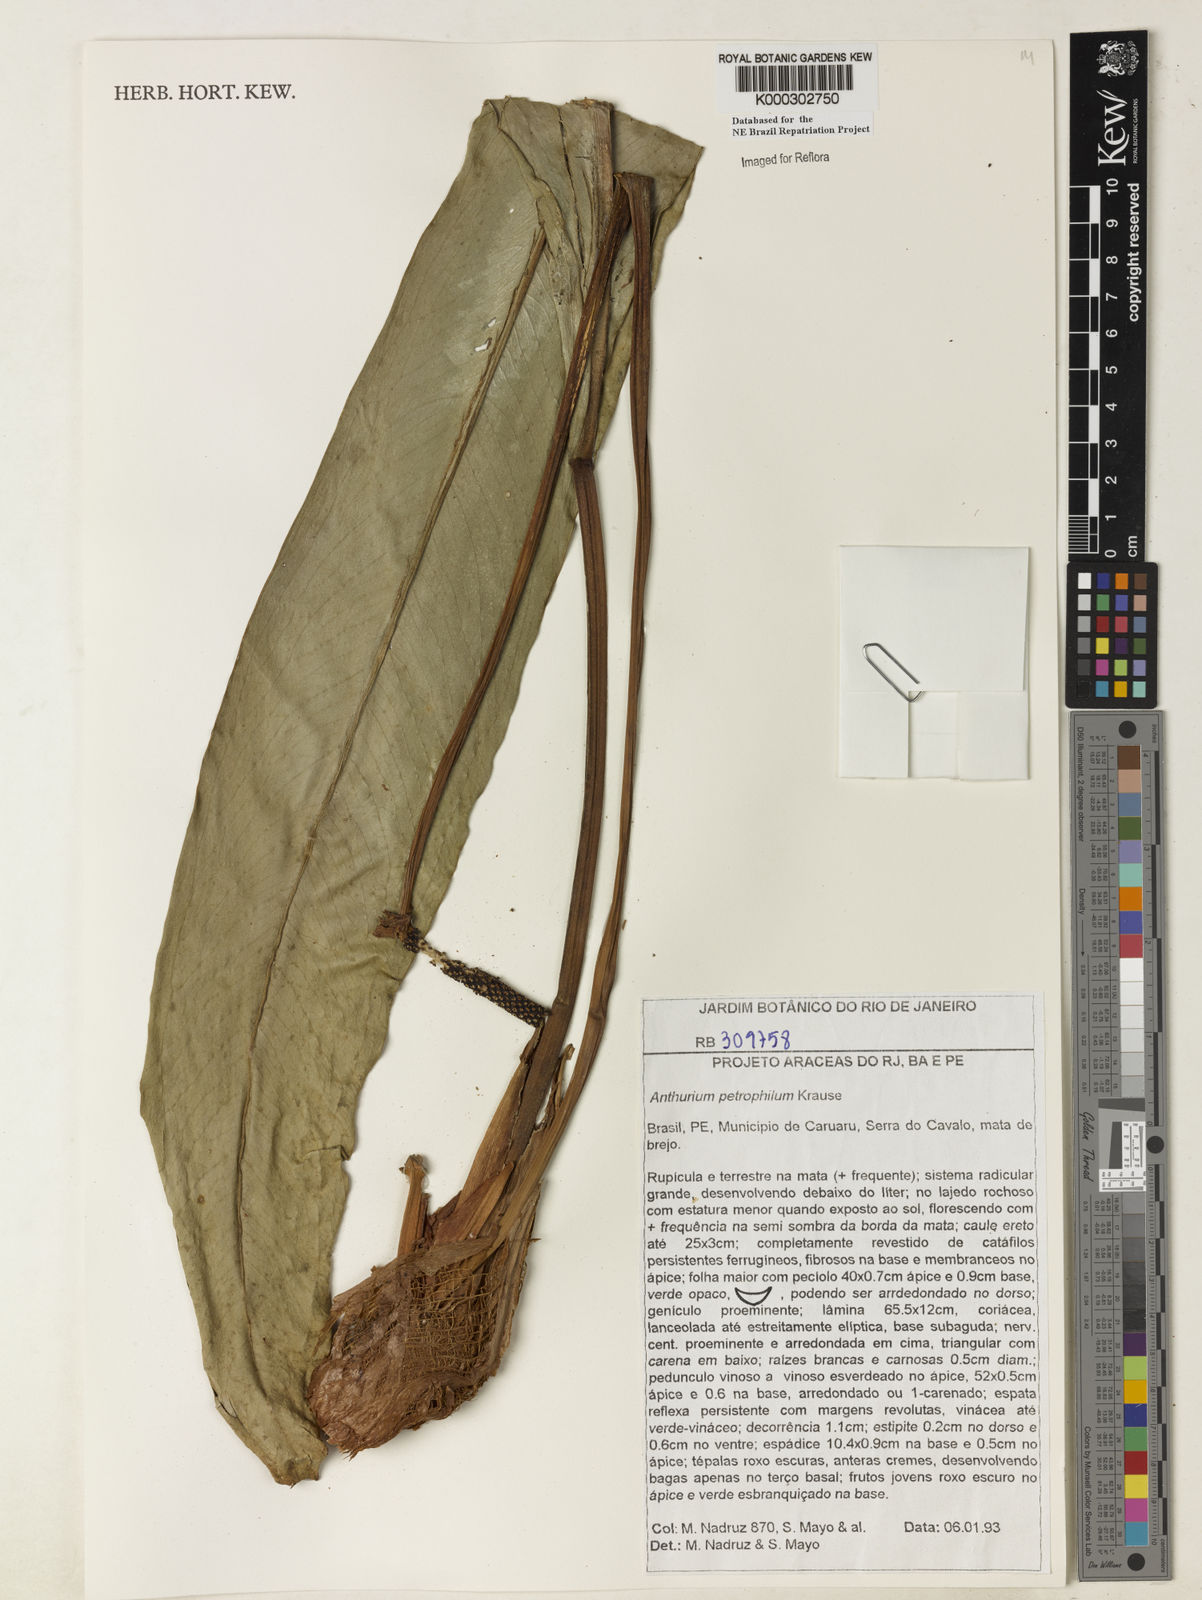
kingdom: Plantae
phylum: Tracheophyta
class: Liliopsida
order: Alismatales
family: Araceae
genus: Anthurium
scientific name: Anthurium petrophilum
